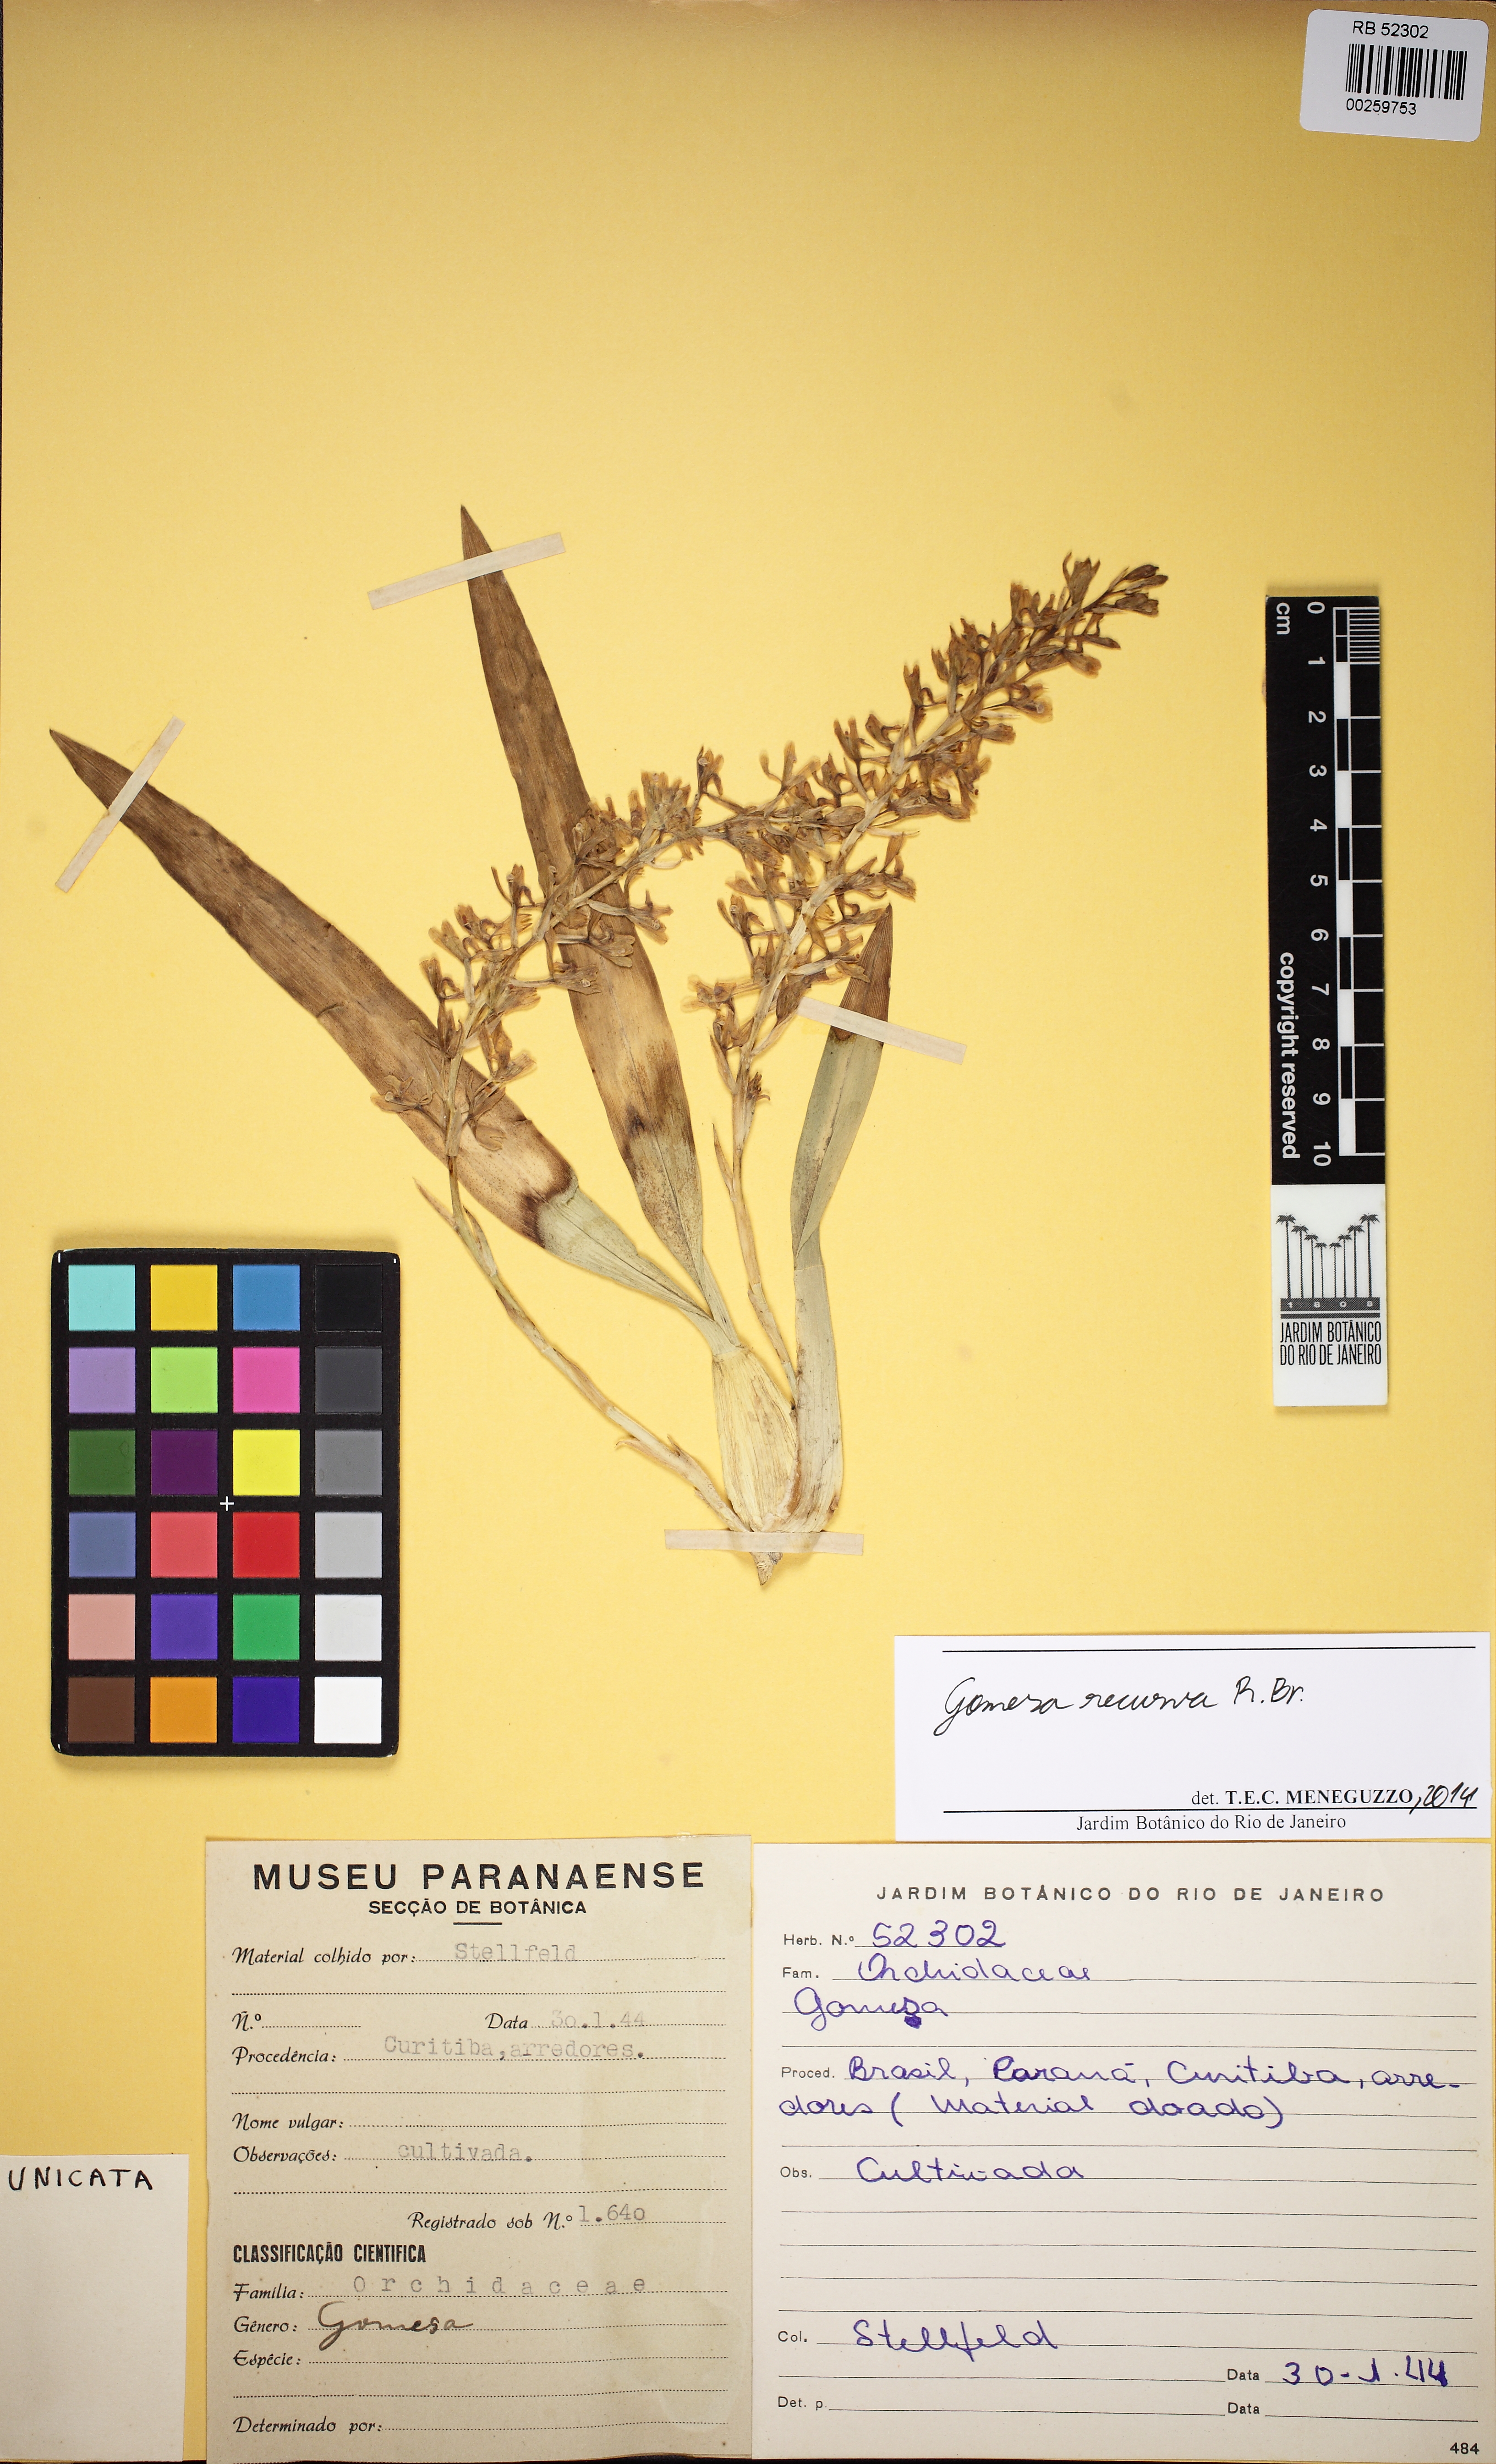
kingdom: Plantae
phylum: Tracheophyta
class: Liliopsida
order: Asparagales
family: Orchidaceae
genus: Gomesa
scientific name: Gomesa recurva
